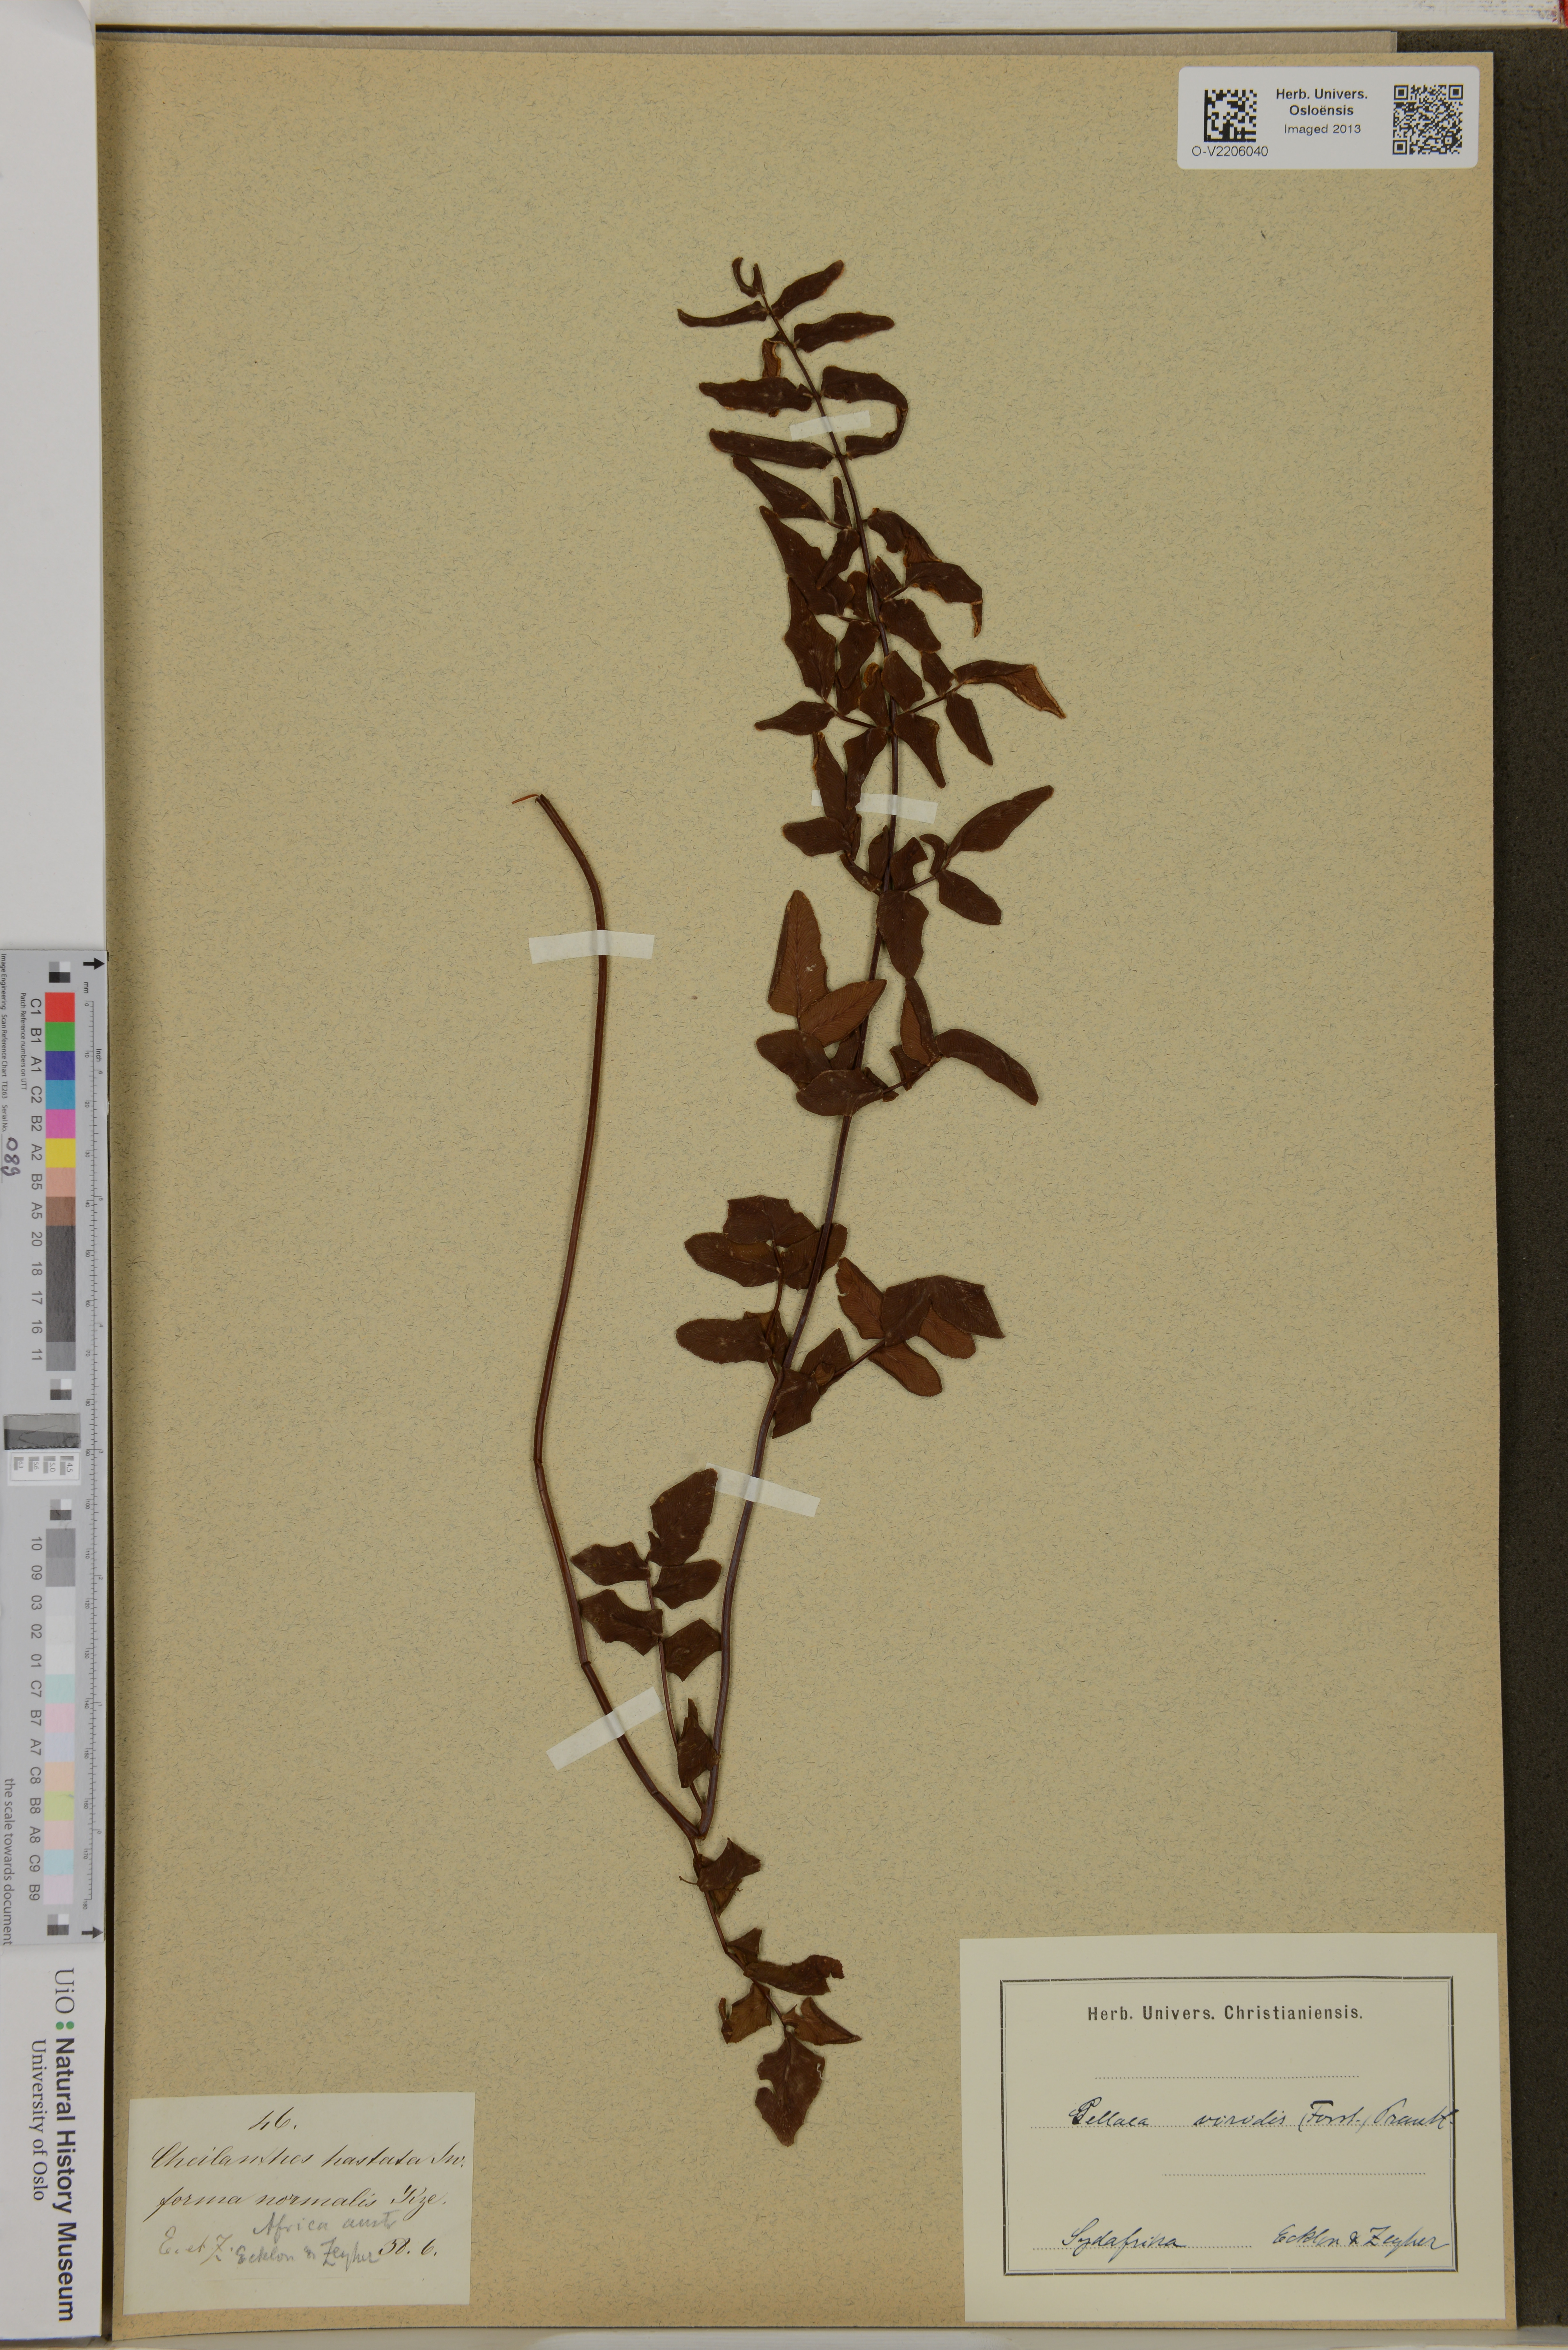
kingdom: Plantae
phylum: Tracheophyta
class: Polypodiopsida
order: Polypodiales
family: Pteridaceae
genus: Cheilanthes
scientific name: Cheilanthes viridis
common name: Green cliffbrake
